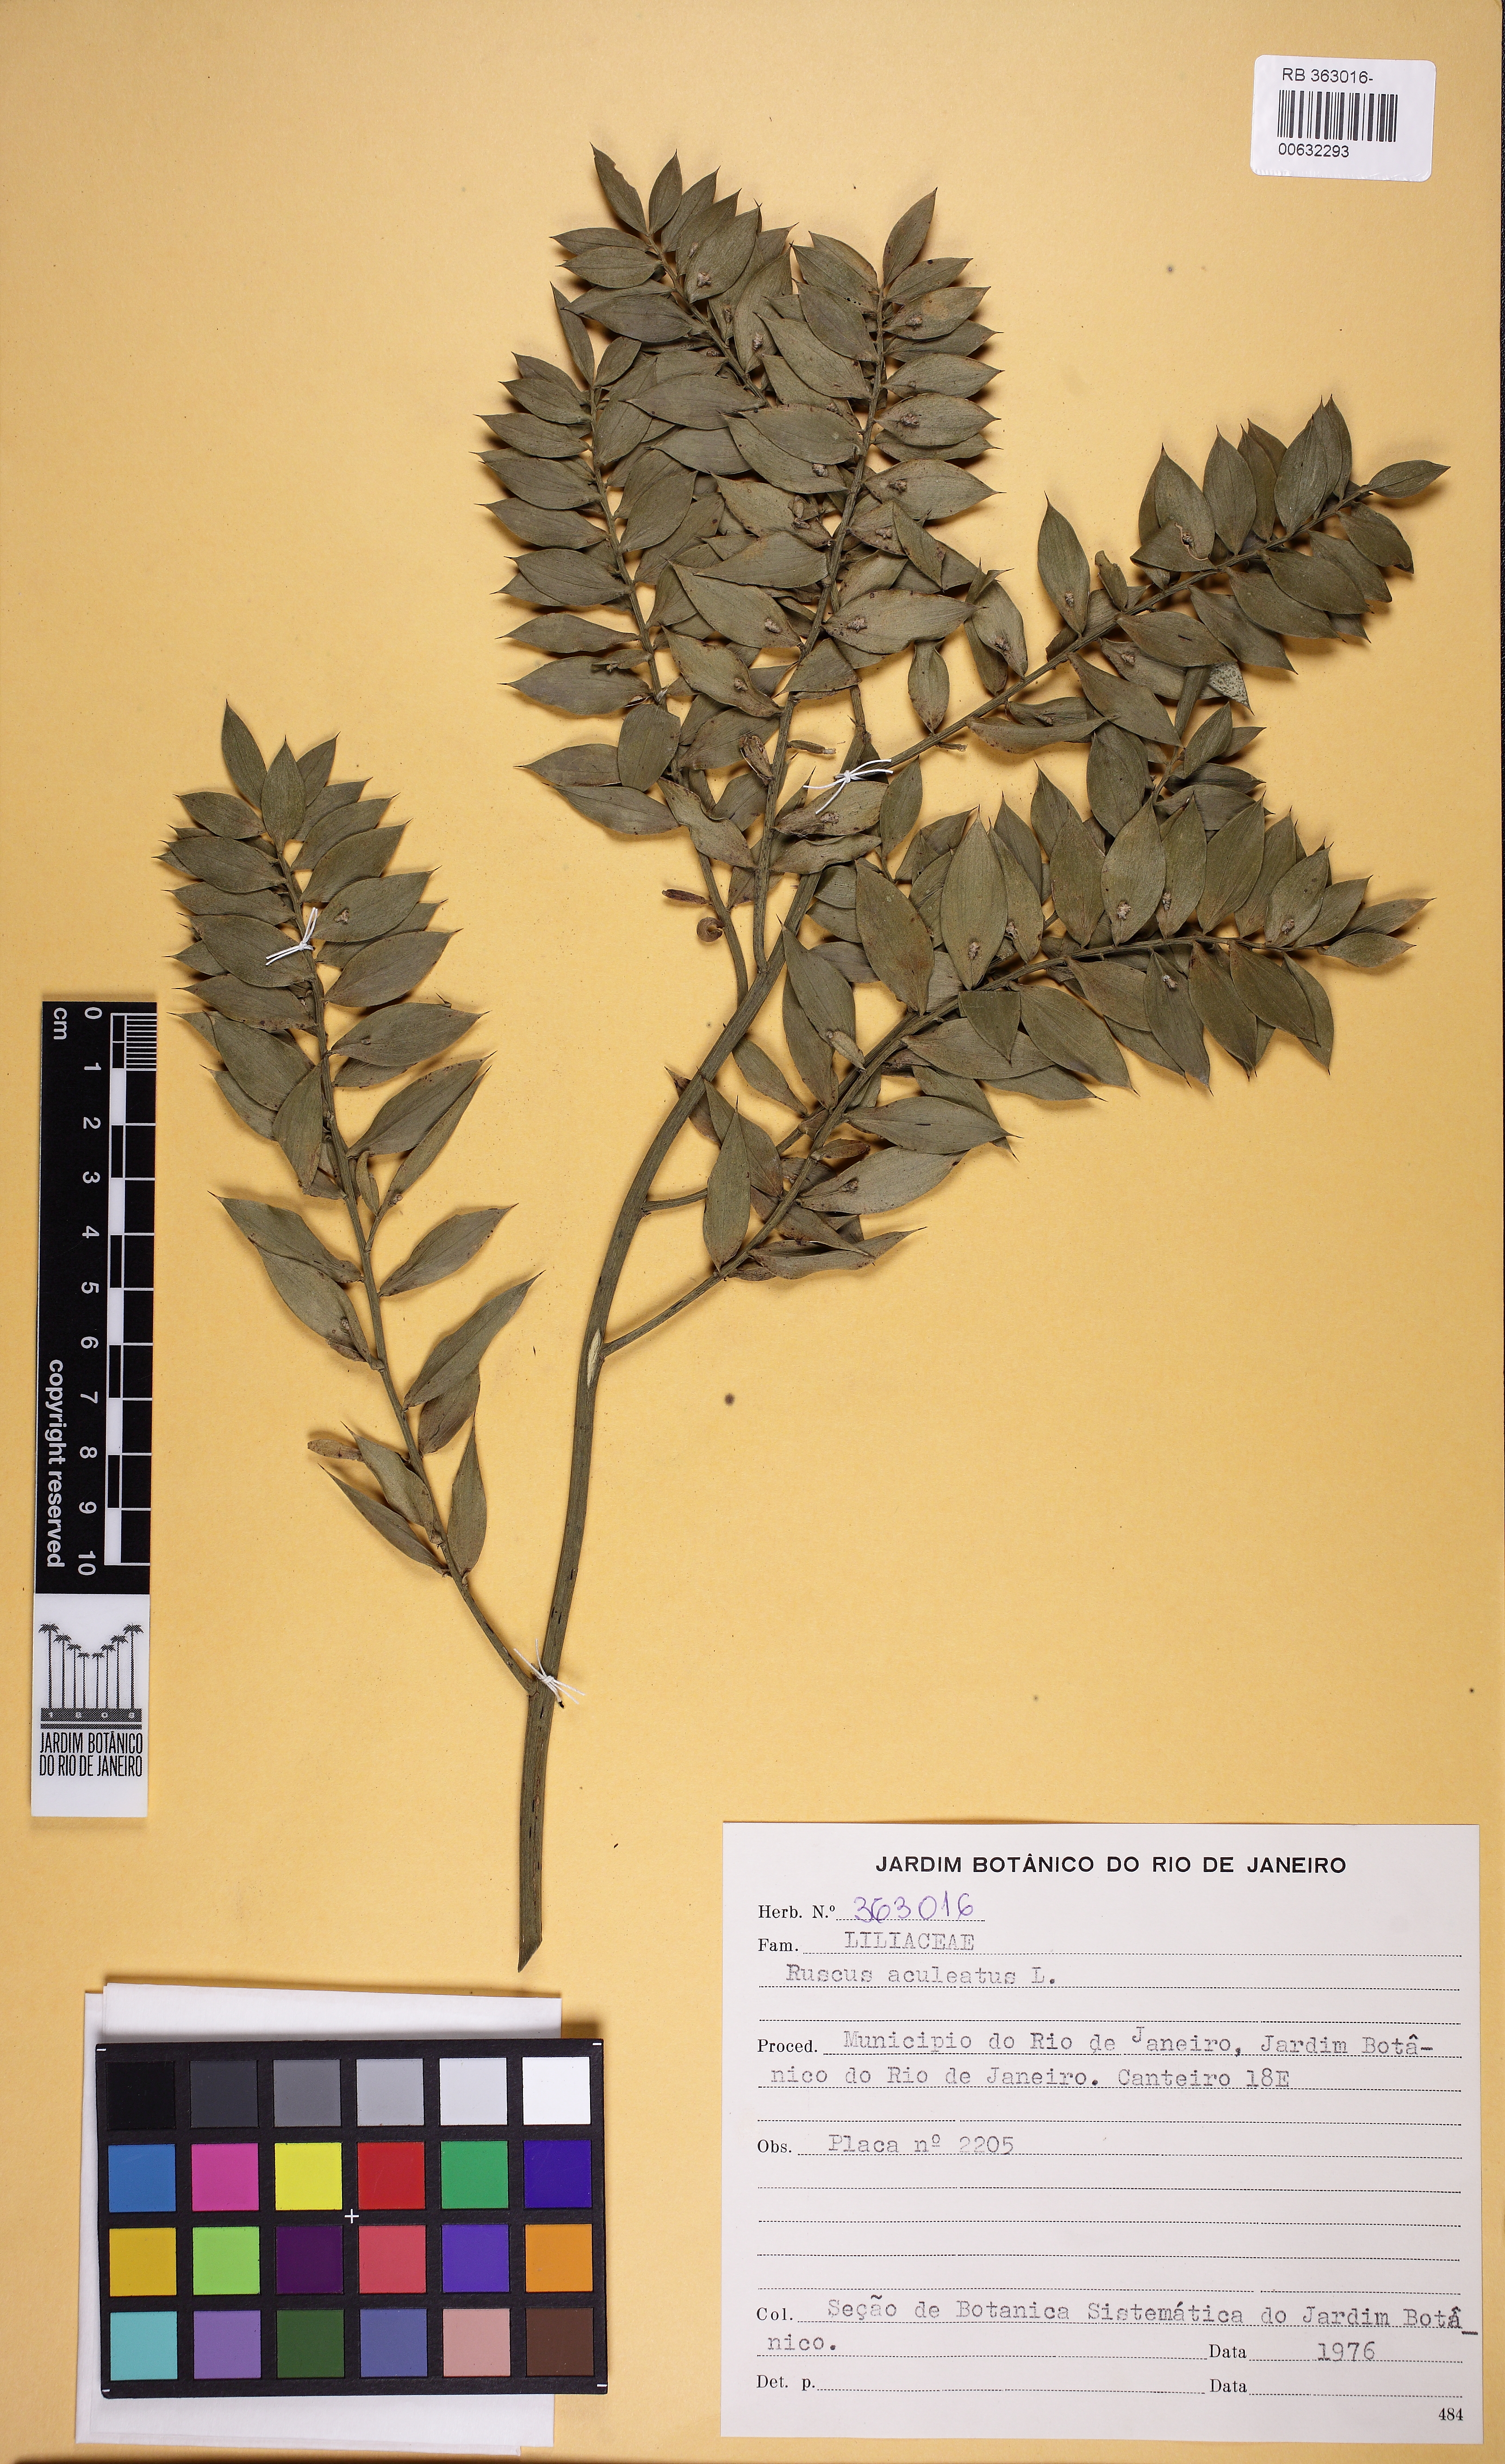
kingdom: Plantae
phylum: Tracheophyta
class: Liliopsida
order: Asparagales
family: Asparagaceae
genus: Ruscus
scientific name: Ruscus aculeatus
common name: Butcher's-broom
